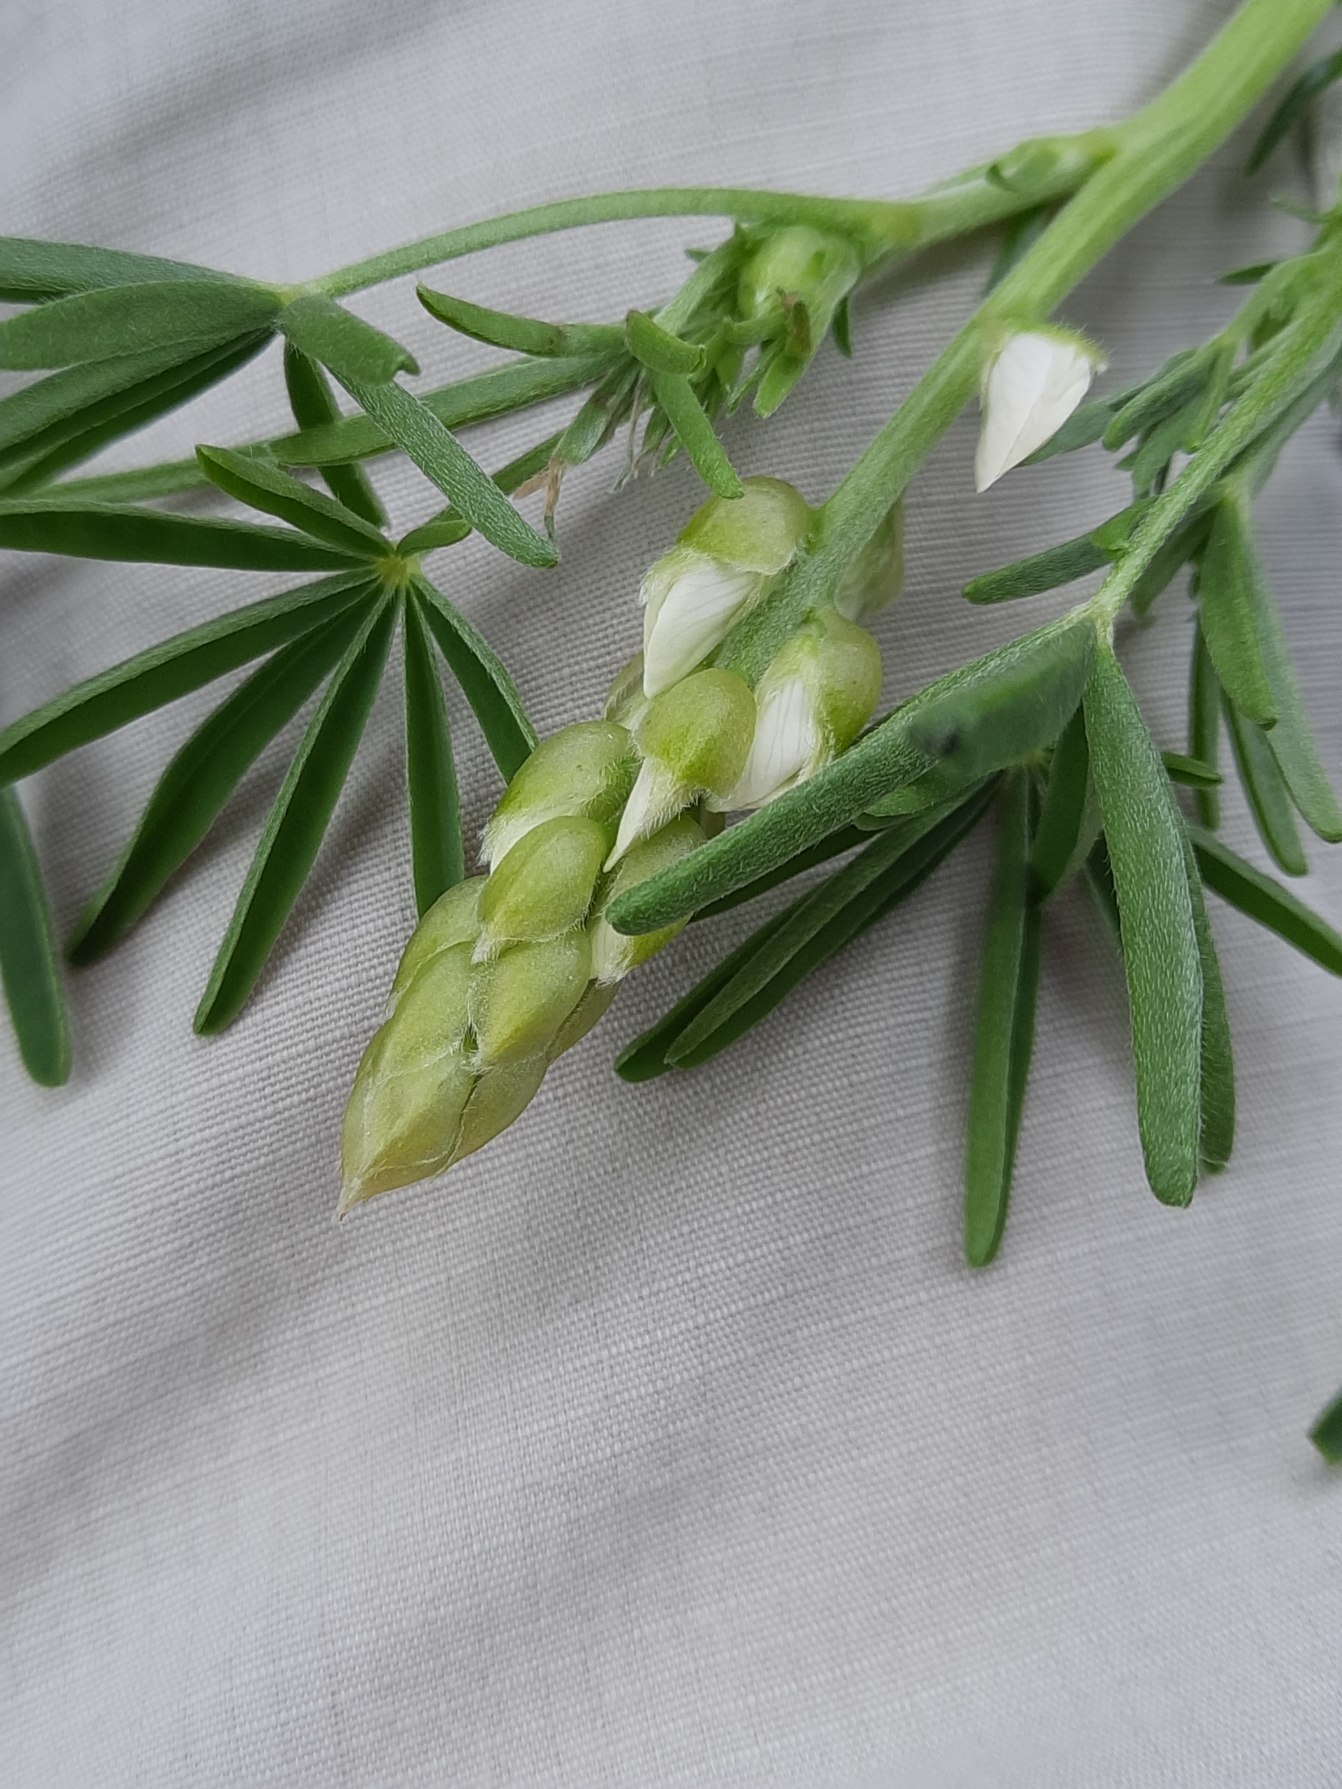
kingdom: Plantae
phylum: Tracheophyta
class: Magnoliopsida
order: Fabales
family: Fabaceae
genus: Lupinus
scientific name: Lupinus angustifolius
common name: Smalbladet lupin
